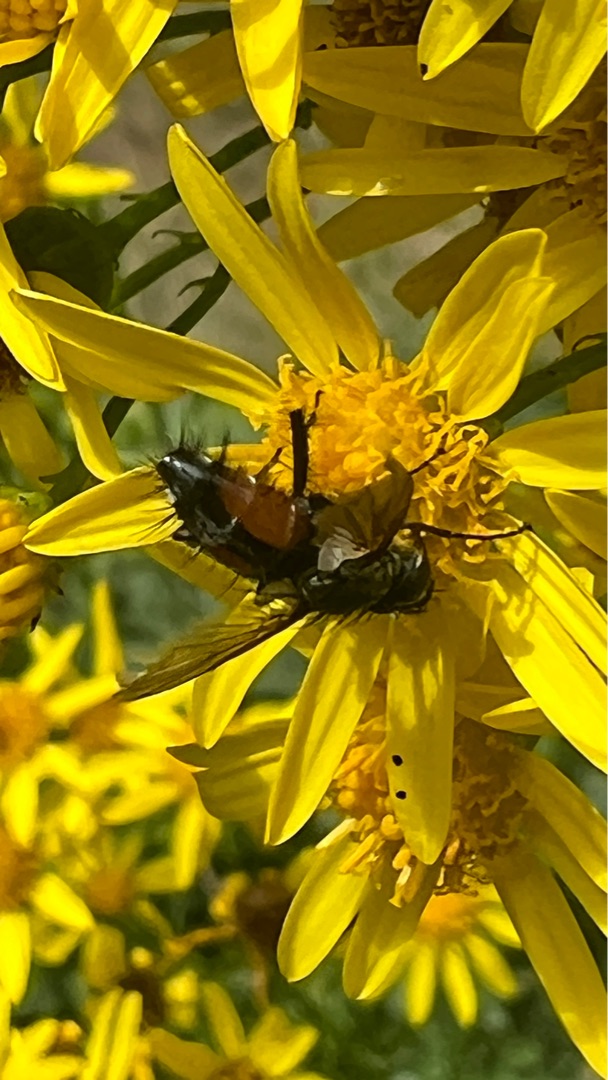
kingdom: Animalia
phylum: Arthropoda
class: Insecta
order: Diptera
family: Tachinidae
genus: Eriothrix
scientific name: Eriothrix rufomaculatus
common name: Rød snylteflue
